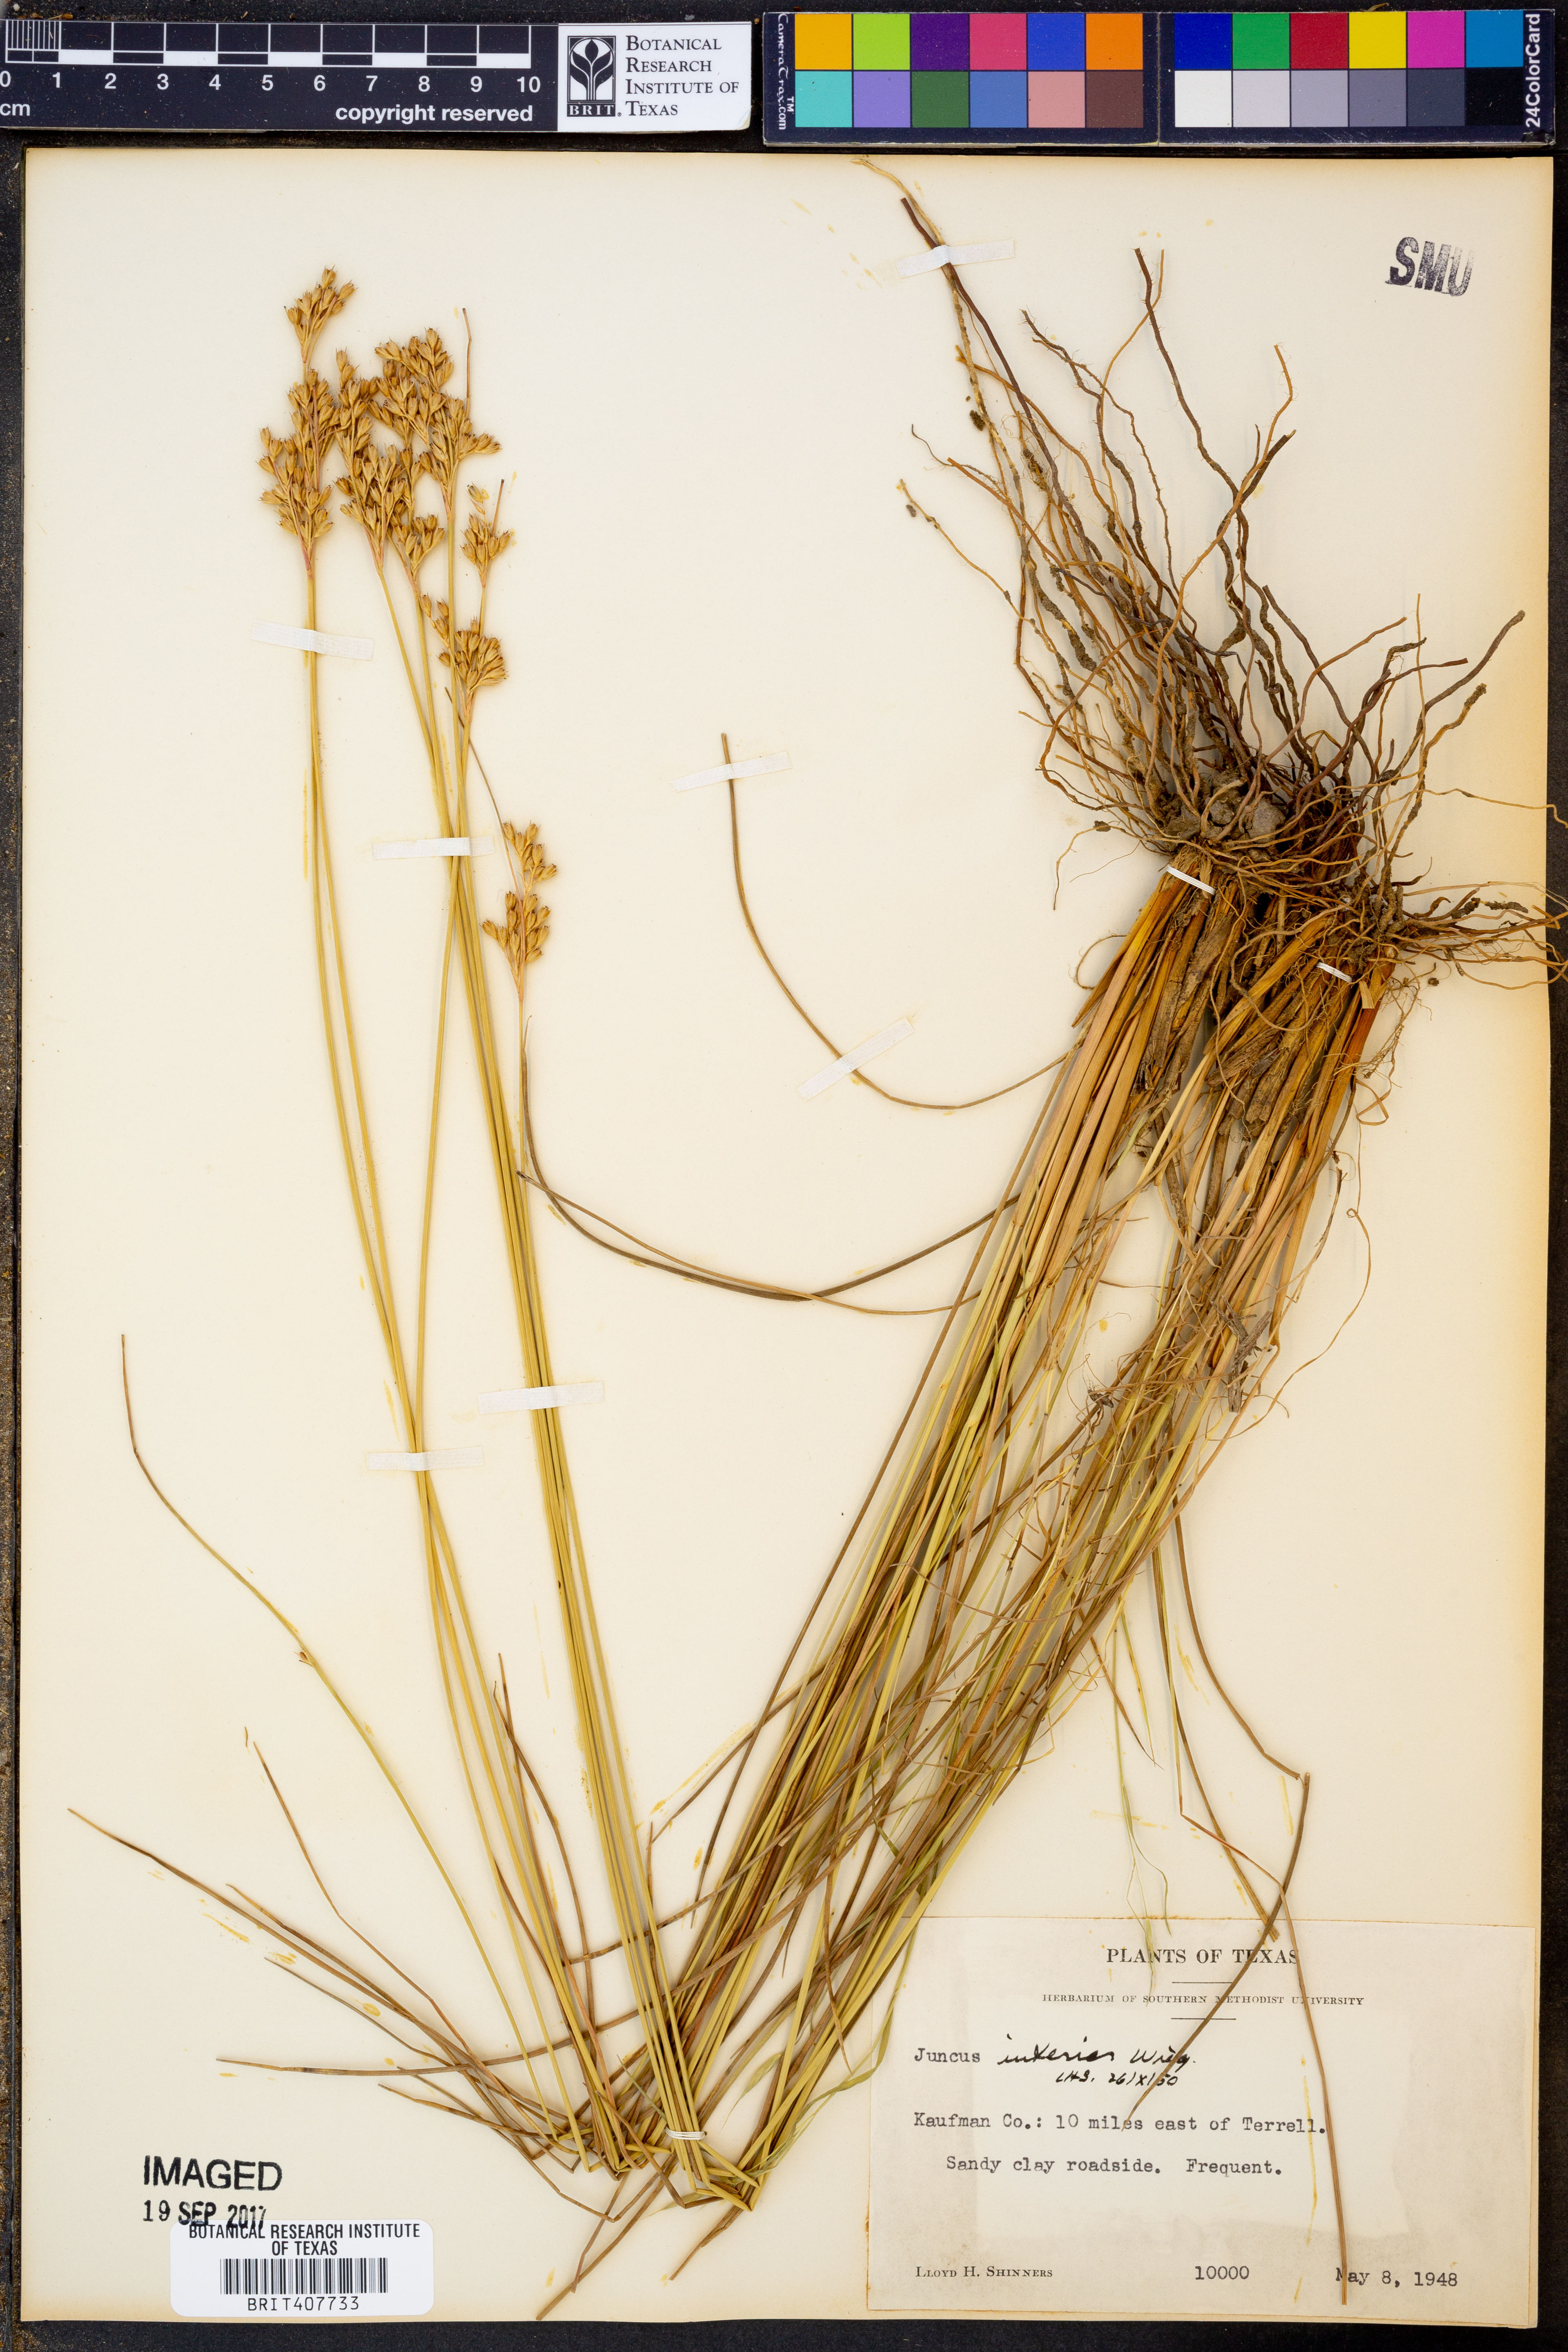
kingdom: Plantae
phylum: Tracheophyta
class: Liliopsida
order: Poales
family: Juncaceae
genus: Juncus
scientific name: Juncus interior
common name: Interior rush
